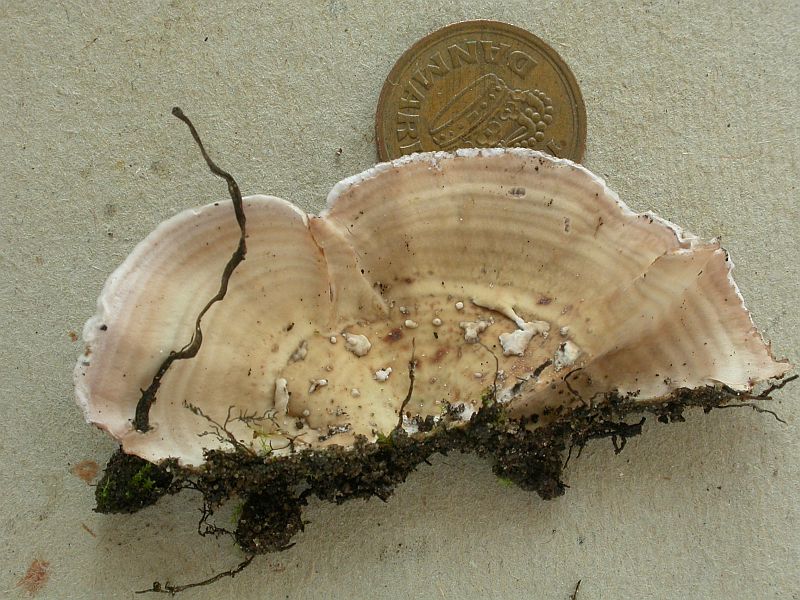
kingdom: Fungi
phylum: Basidiomycota
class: Agaricomycetes
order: Agaricales
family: Cyphellaceae
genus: Chondrostereum
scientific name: Chondrostereum purpureum
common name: purpurlædersvamp
